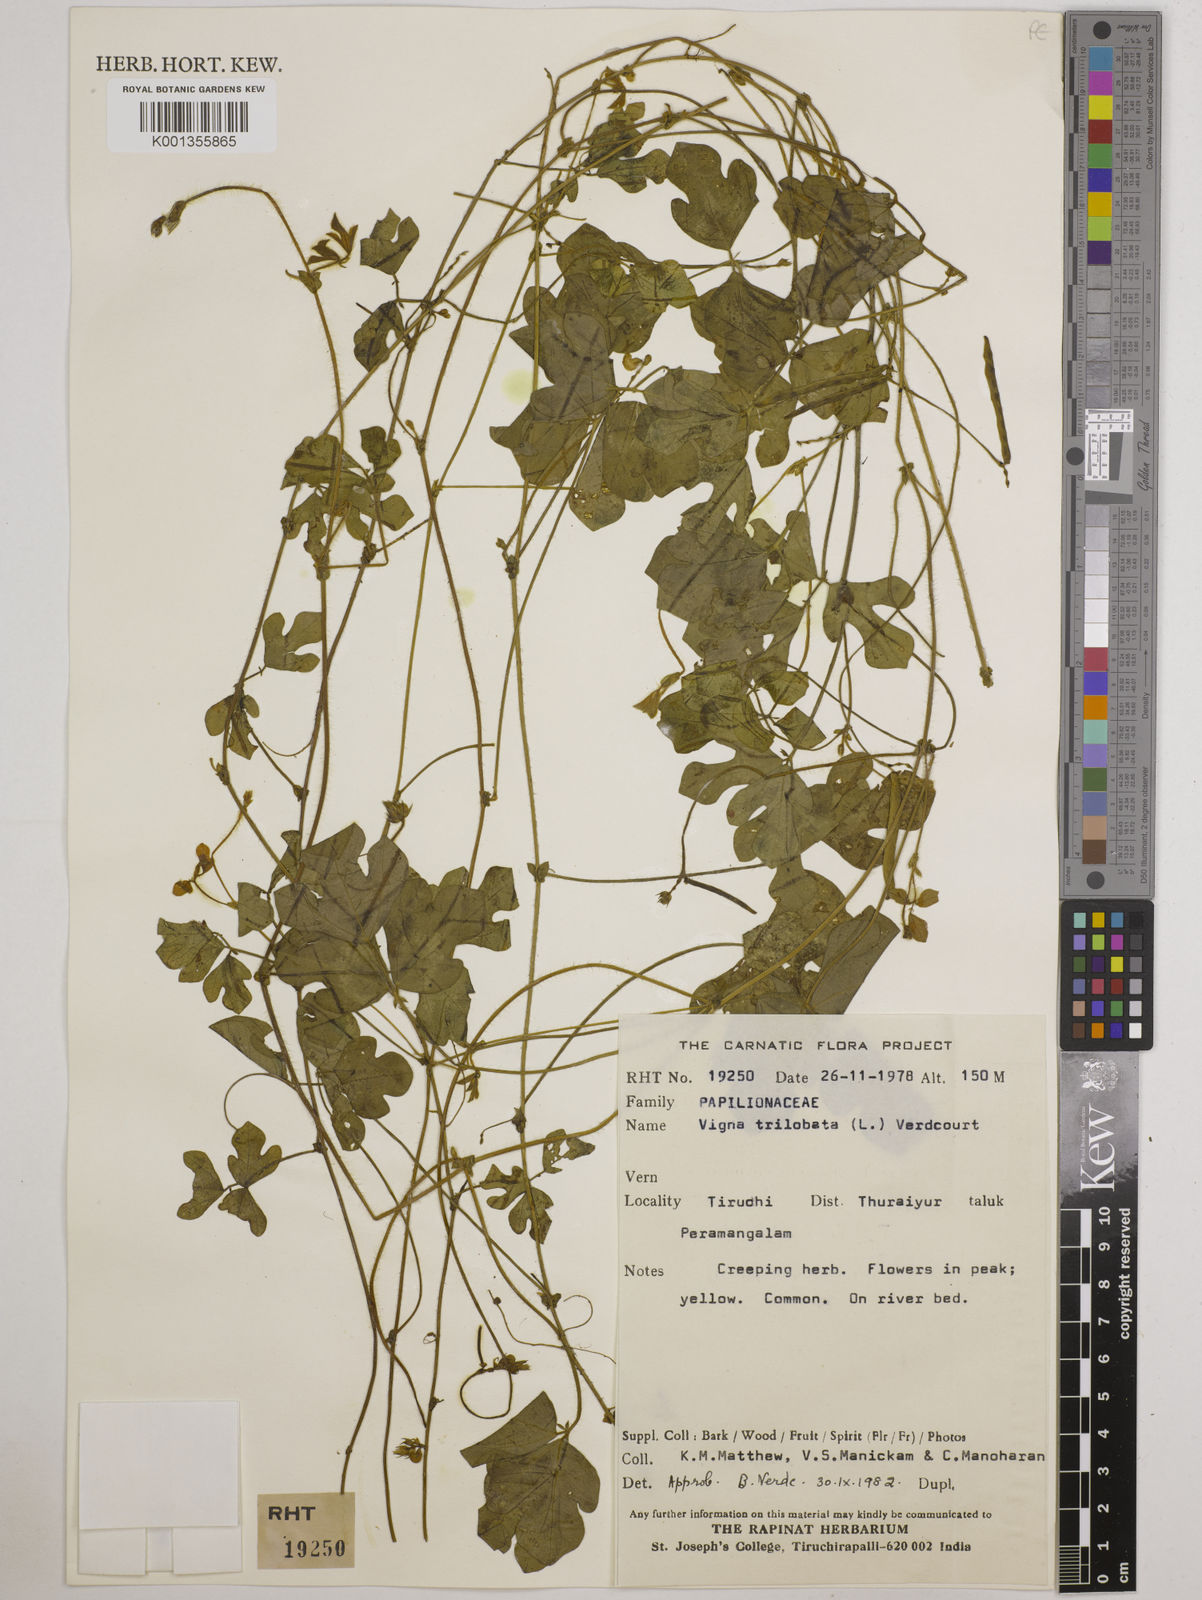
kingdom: Plantae
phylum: Tracheophyta
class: Magnoliopsida
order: Fabales
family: Fabaceae
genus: Vigna
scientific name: Vigna trilobata
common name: Jungli-bean
